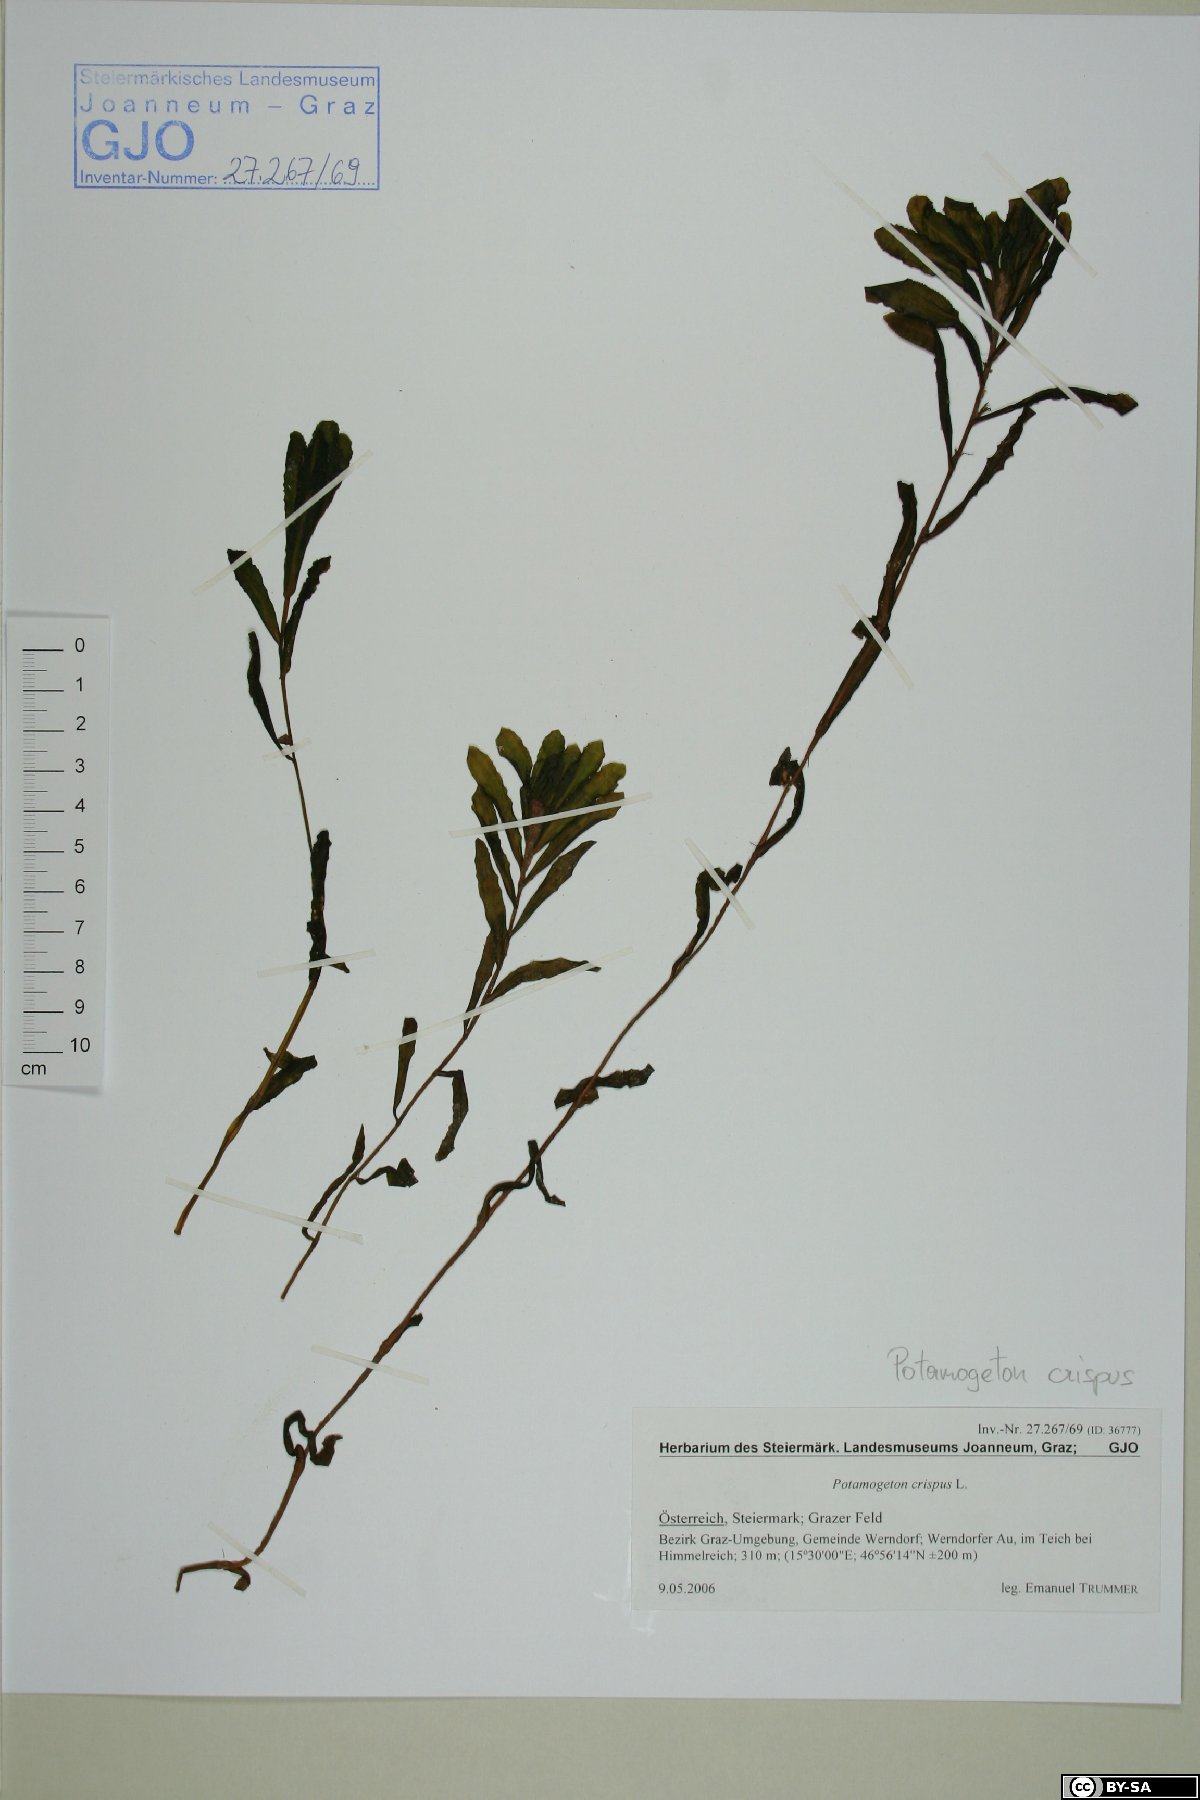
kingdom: Plantae
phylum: Tracheophyta
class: Liliopsida
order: Alismatales
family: Potamogetonaceae
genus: Potamogeton
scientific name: Potamogeton crispus
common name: Curled pondweed
